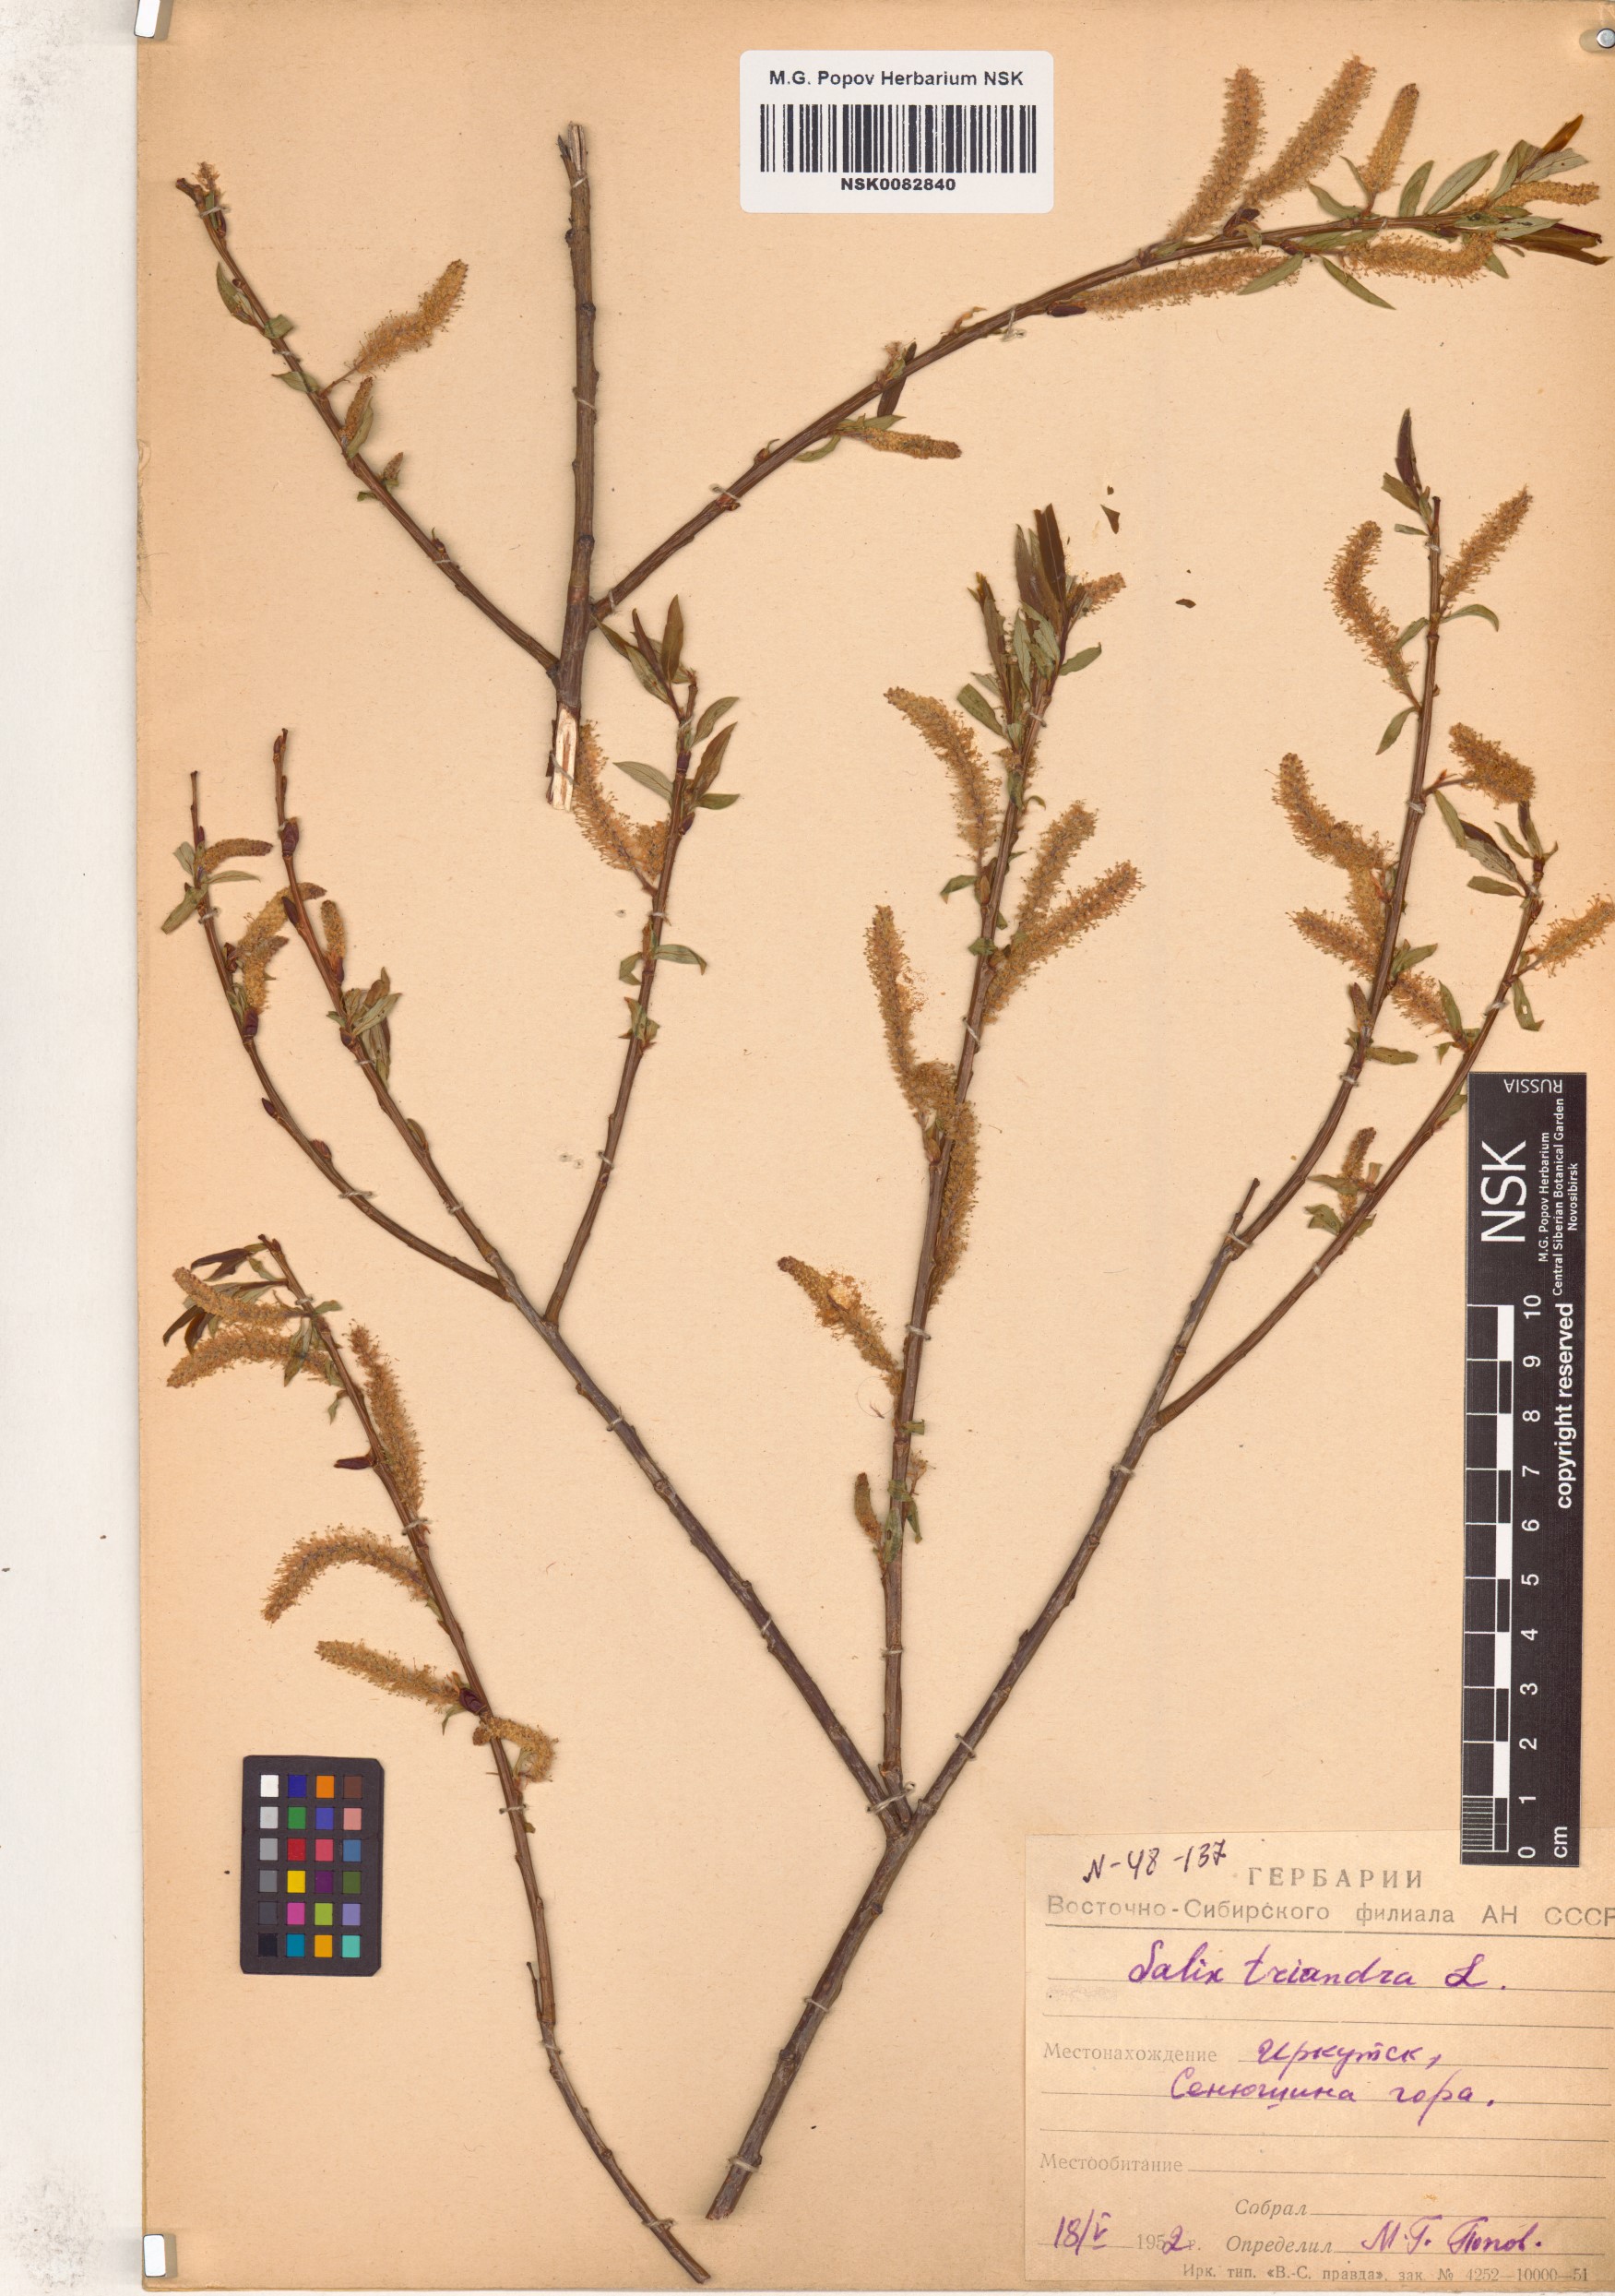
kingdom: Plantae
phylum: Tracheophyta
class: Magnoliopsida
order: Malpighiales
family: Salicaceae
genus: Salix
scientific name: Salix triandra
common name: Almond willow
